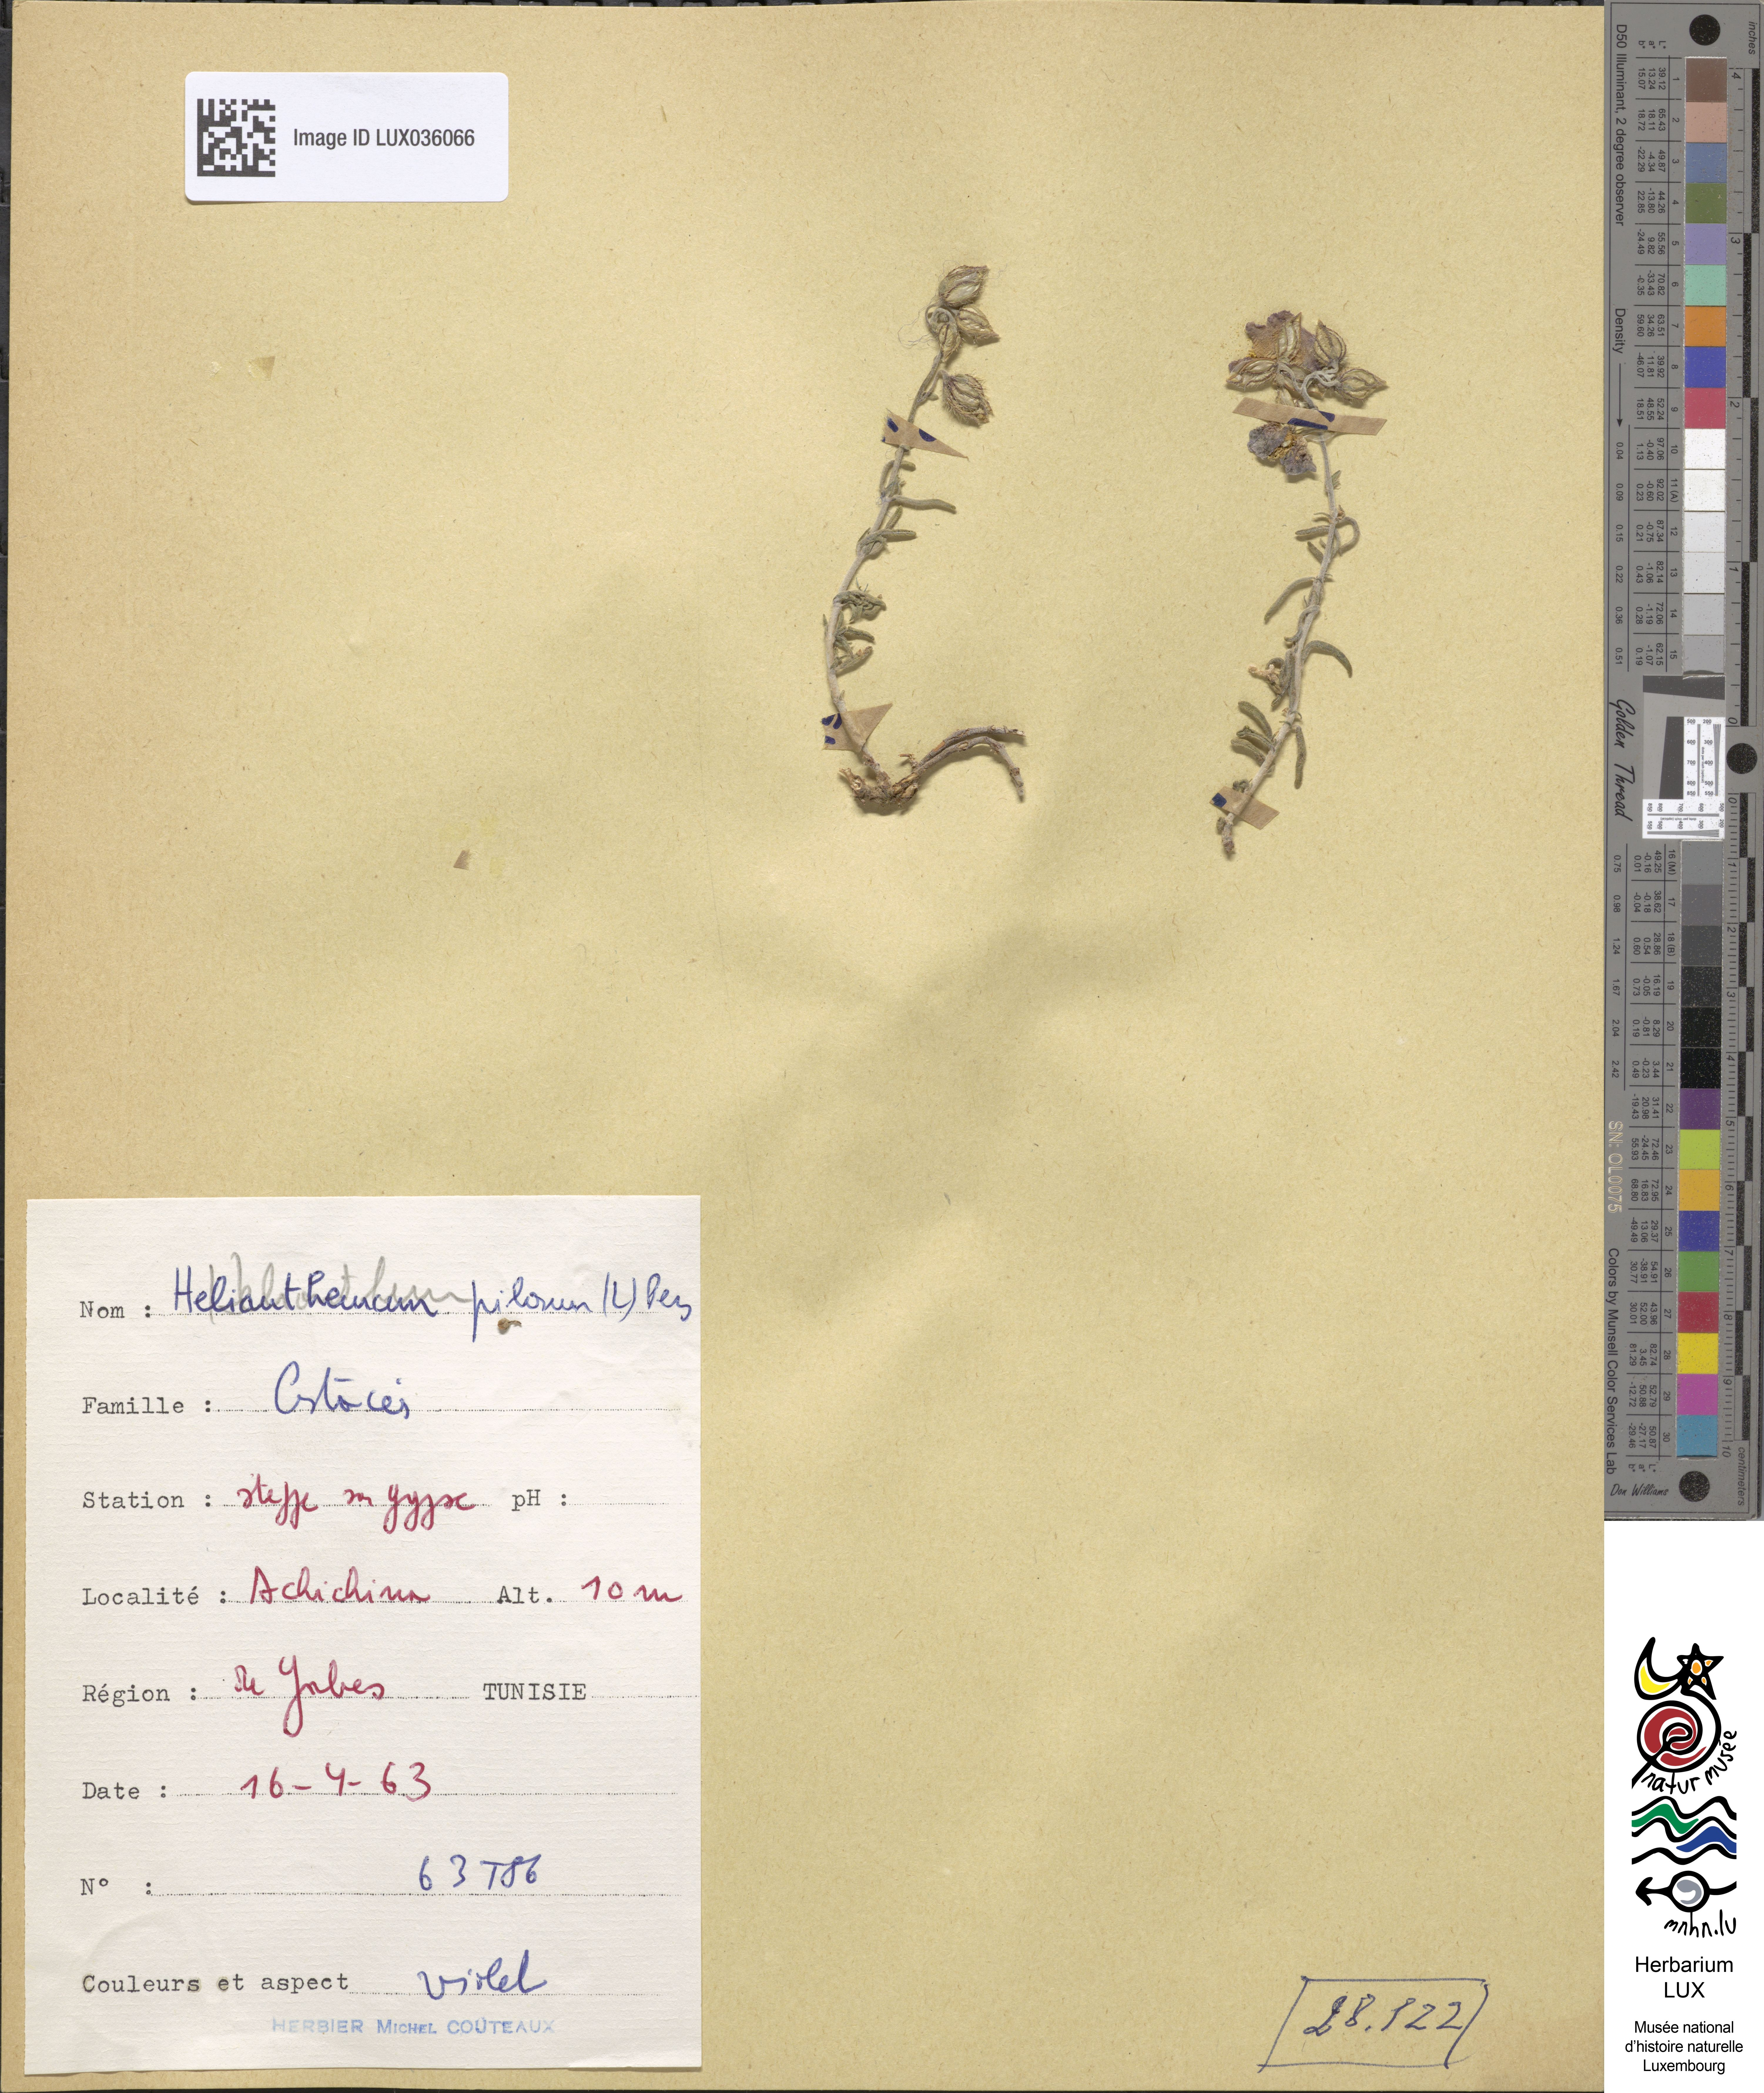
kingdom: Plantae
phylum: Tracheophyta
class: Magnoliopsida
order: Malvales
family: Cistaceae
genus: Fumana
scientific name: Fumana laevis
